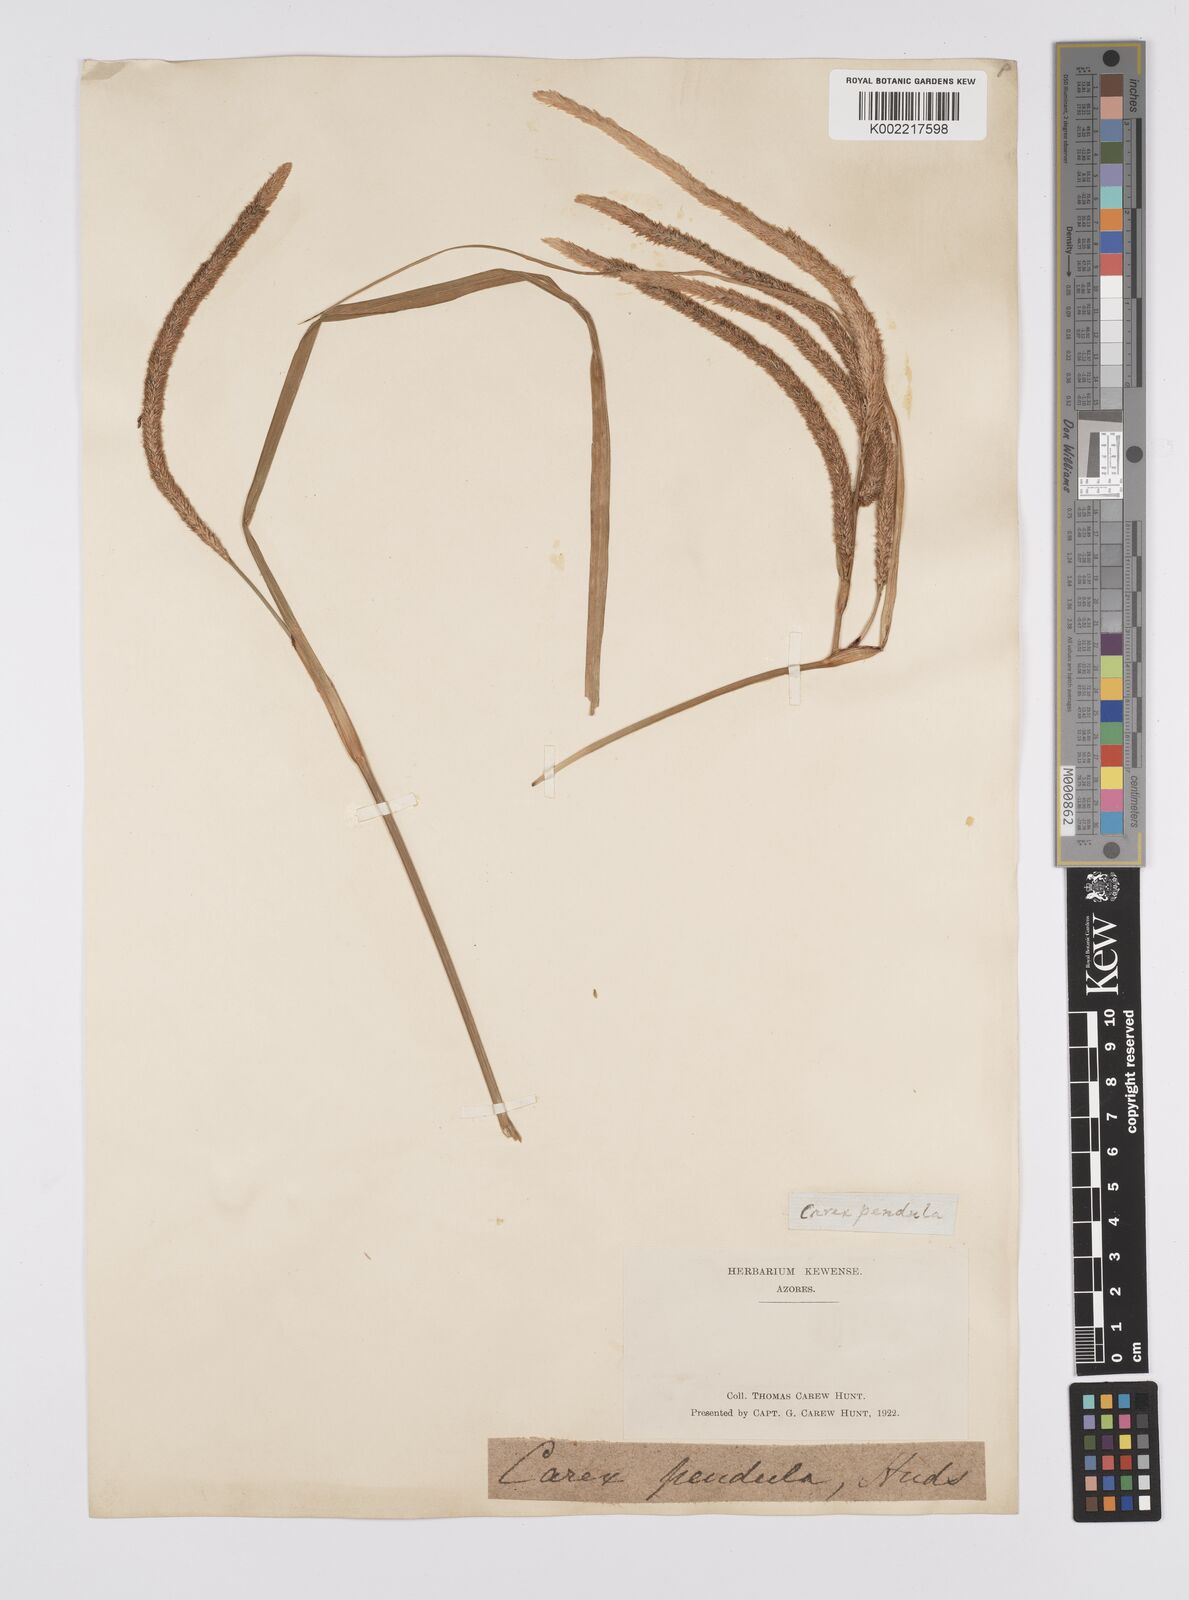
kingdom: Plantae
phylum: Tracheophyta
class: Liliopsida
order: Poales
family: Cyperaceae
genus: Carex
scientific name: Carex pendula
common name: Pendulous sedge
